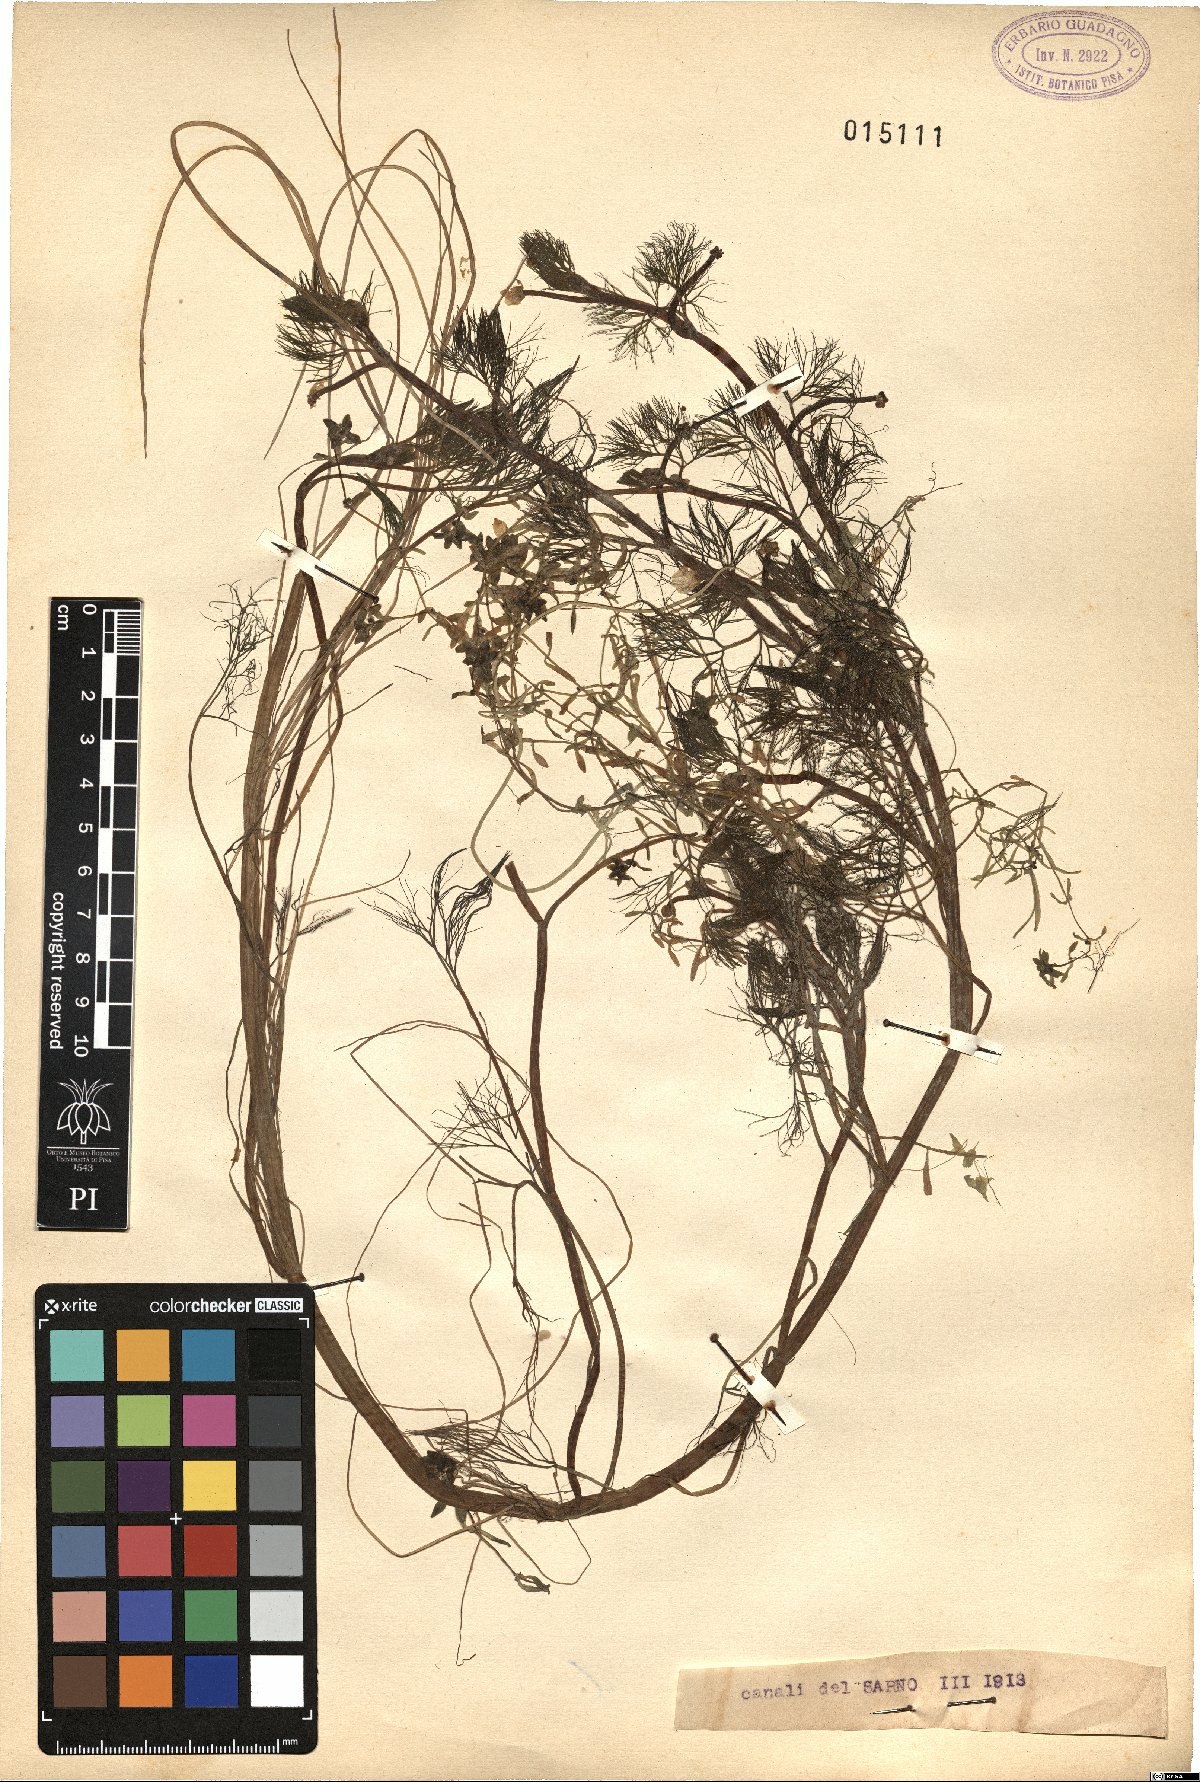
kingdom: Plantae
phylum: Tracheophyta
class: Magnoliopsida
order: Ranunculales
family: Ranunculaceae
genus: Ranunculus
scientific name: Ranunculus
